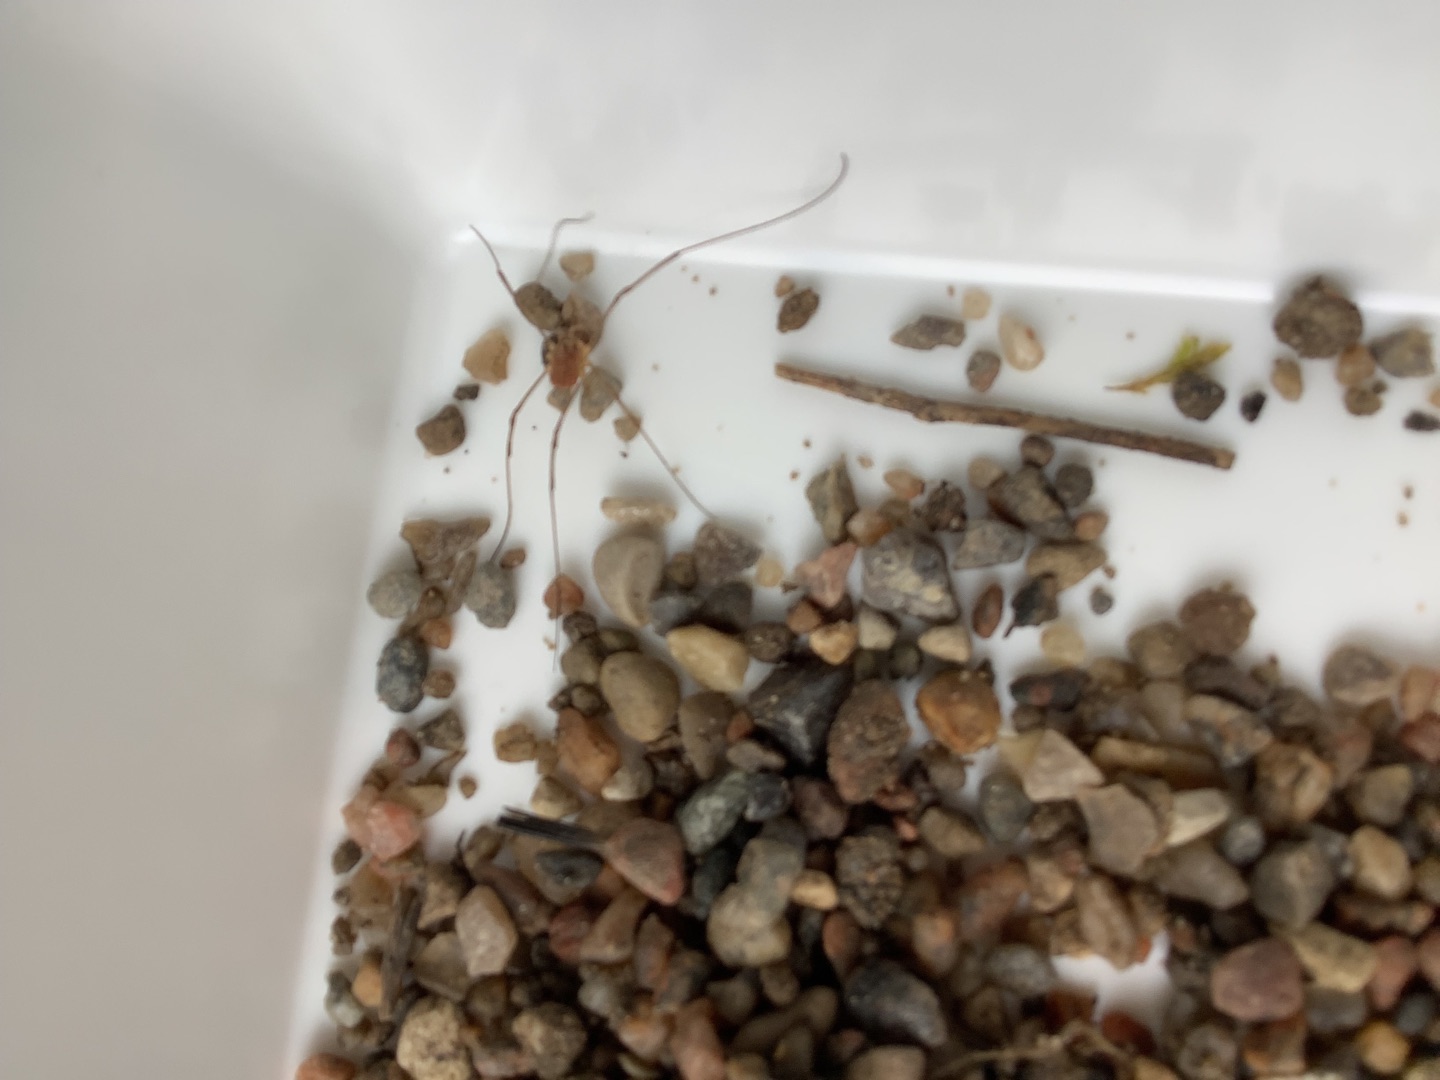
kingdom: Animalia
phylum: Arthropoda
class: Arachnida
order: Opiliones
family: Phalangiidae
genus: Opilio
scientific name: Opilio canestrinii
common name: Orange vægmejer
